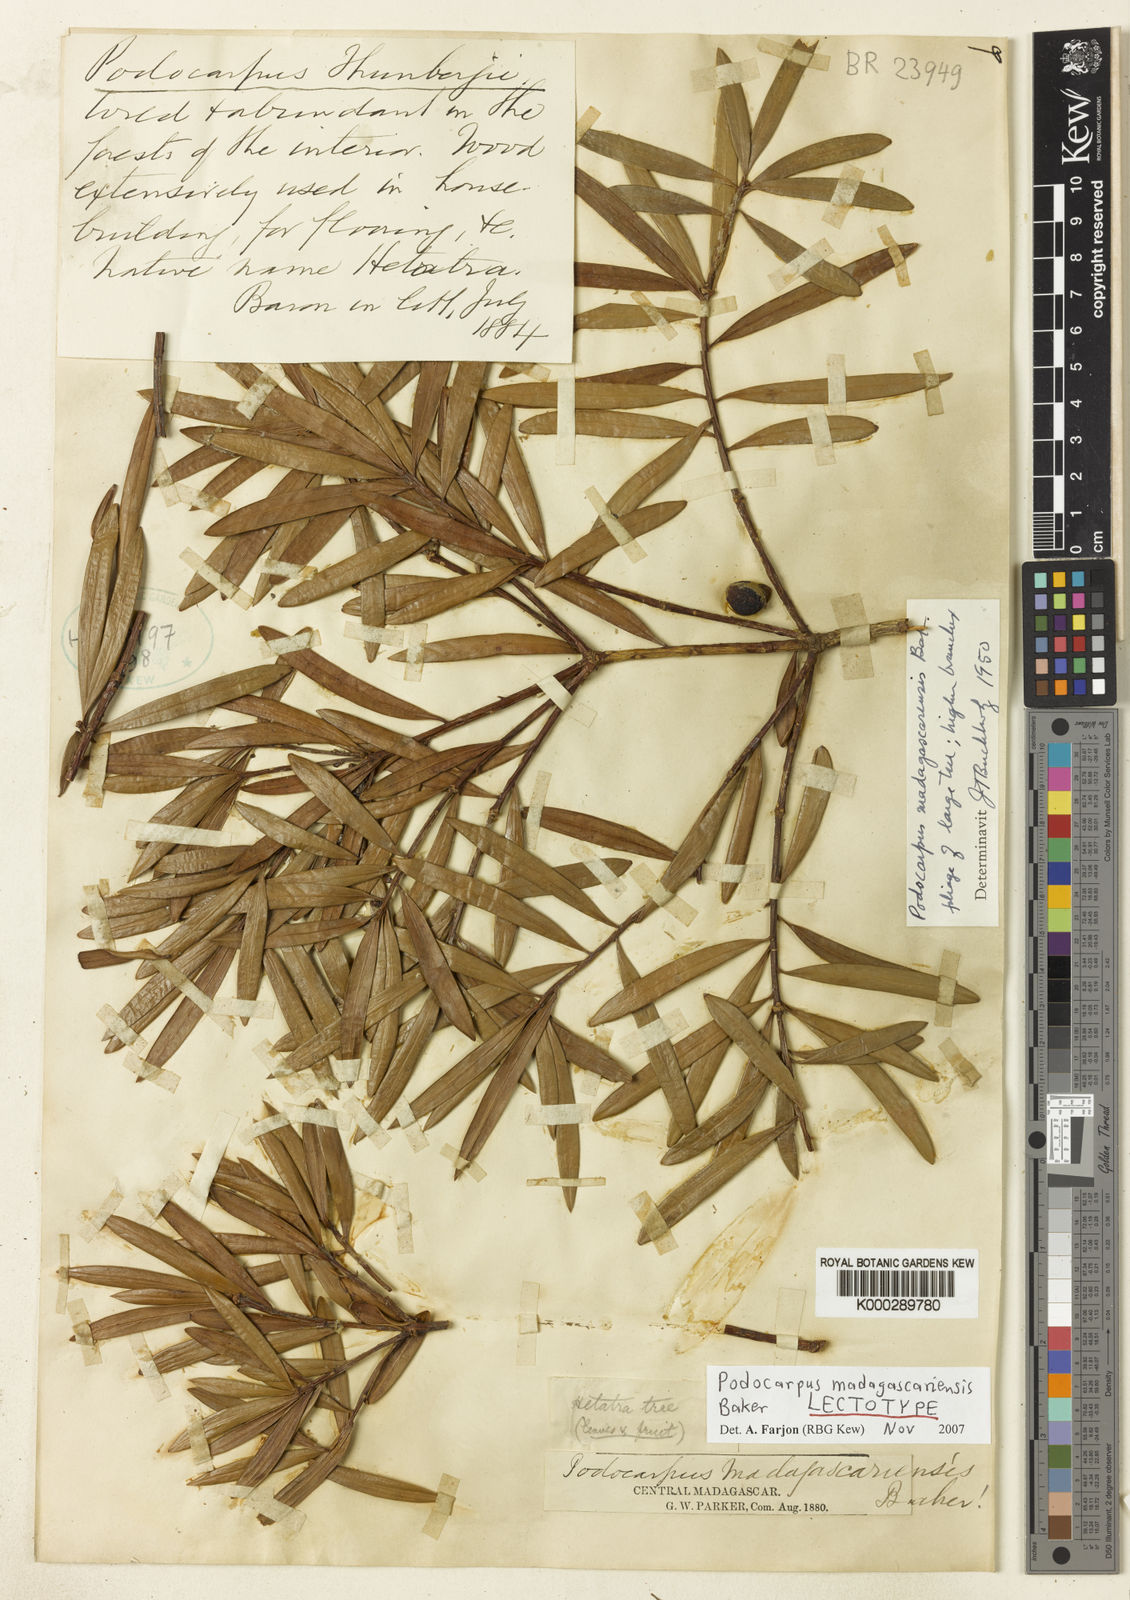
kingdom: Plantae
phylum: Tracheophyta
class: Pinopsida
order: Pinales
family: Podocarpaceae
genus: Podocarpus
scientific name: Podocarpus madagascariensis
